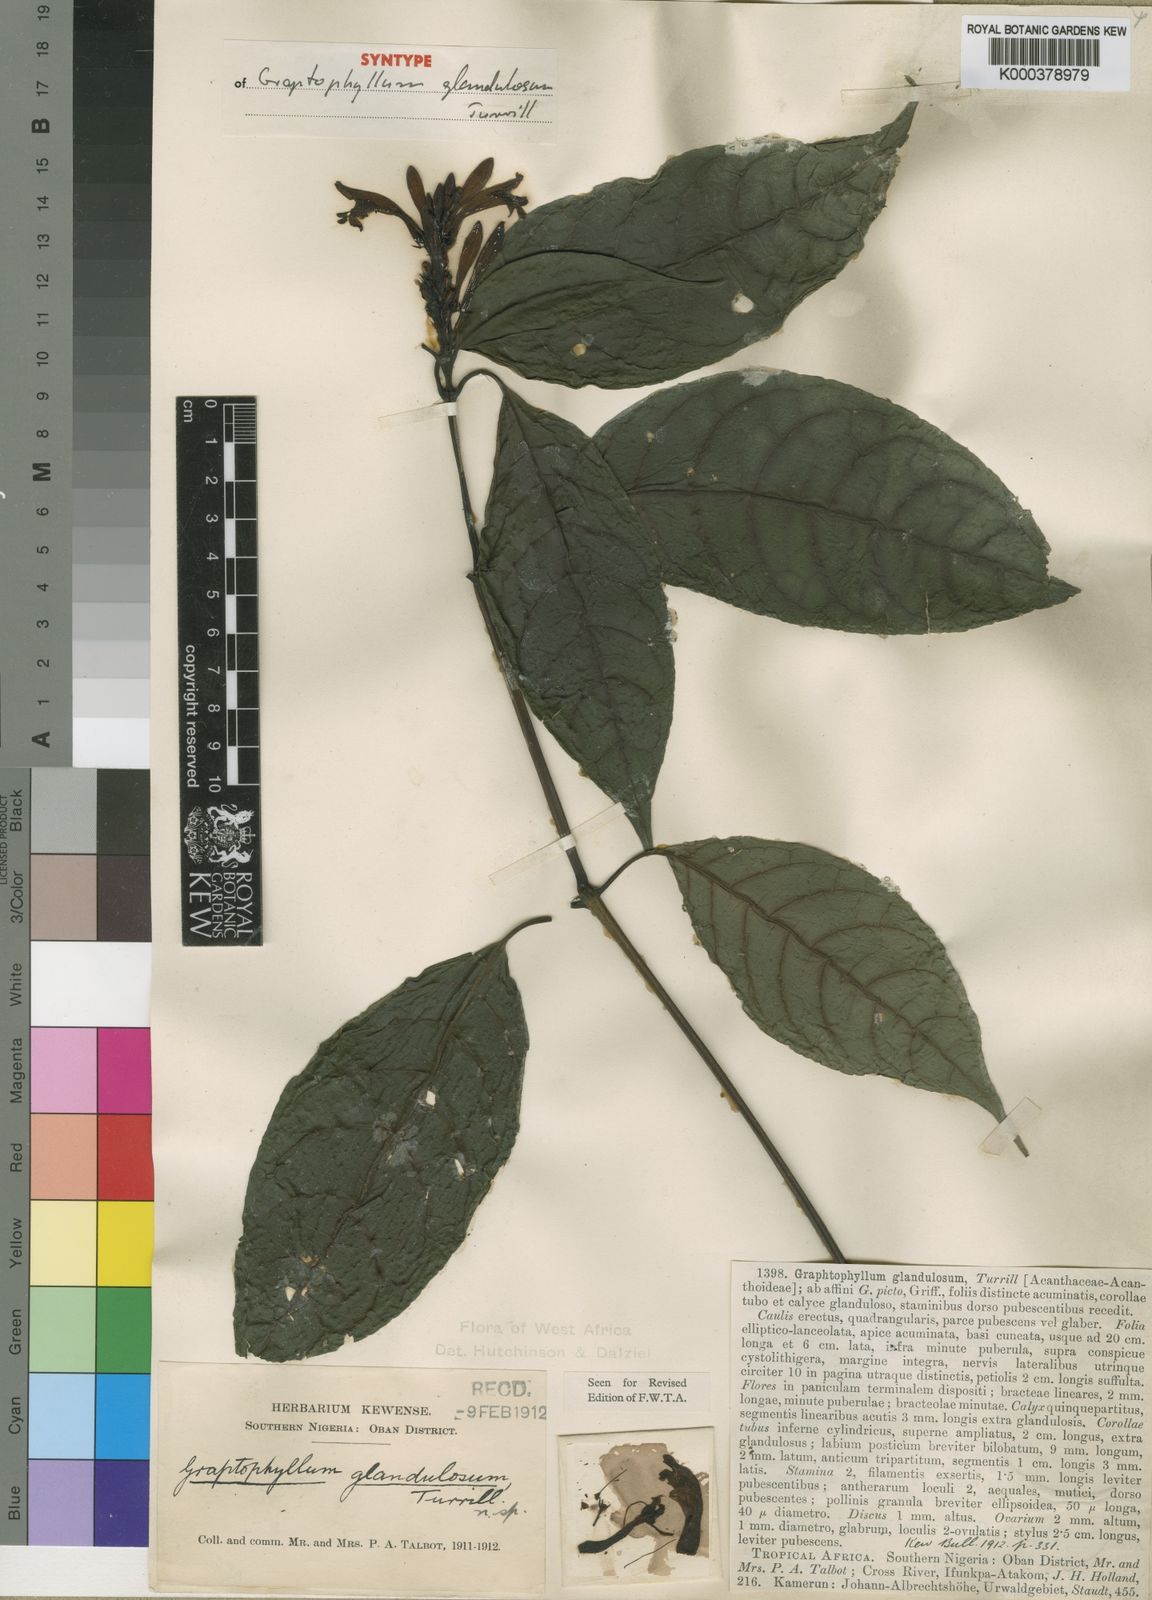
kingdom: Plantae
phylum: Tracheophyta
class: Magnoliopsida
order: Lamiales
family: Acanthaceae
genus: Graptophyllum
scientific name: Graptophyllum glandulosum
